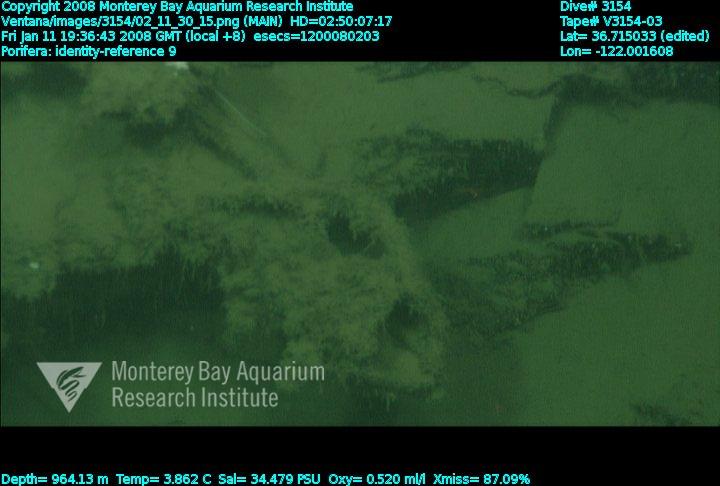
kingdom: Animalia
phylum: Porifera
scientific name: Porifera
